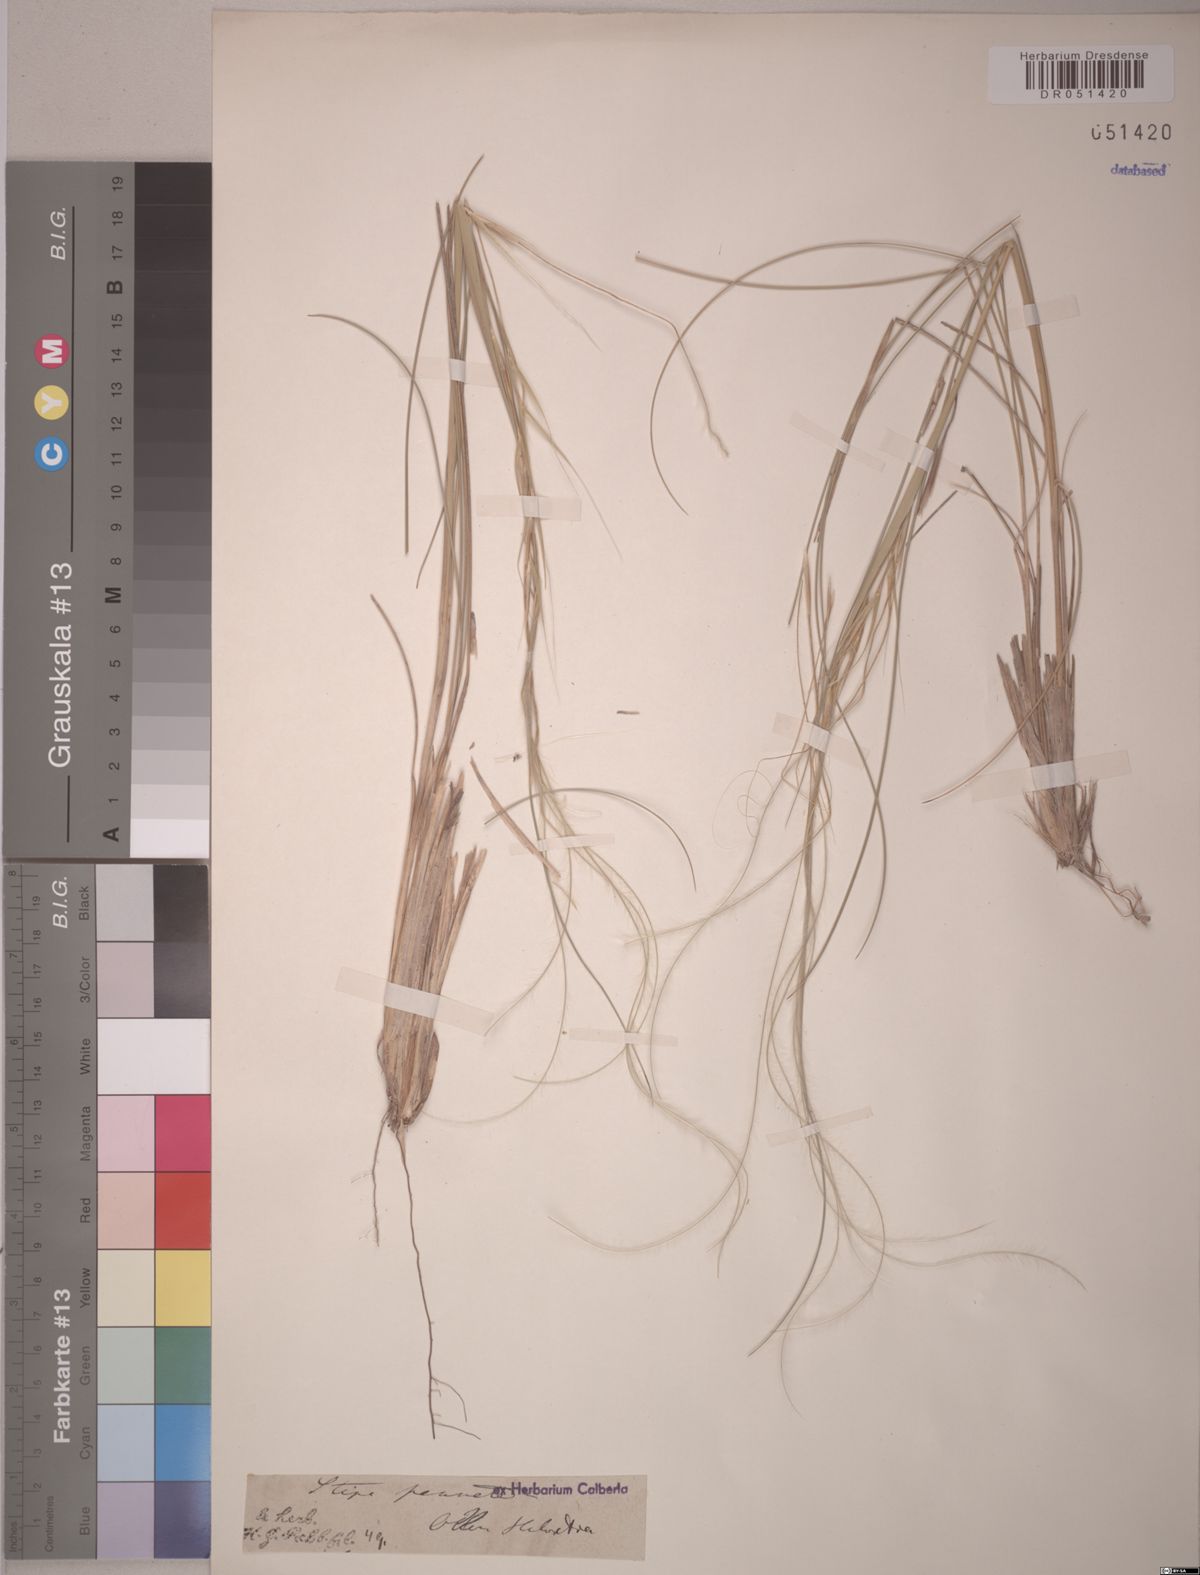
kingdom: Plantae
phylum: Tracheophyta
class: Liliopsida
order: Poales
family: Poaceae
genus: Stipa
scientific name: Stipa pennata
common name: European feather grass
